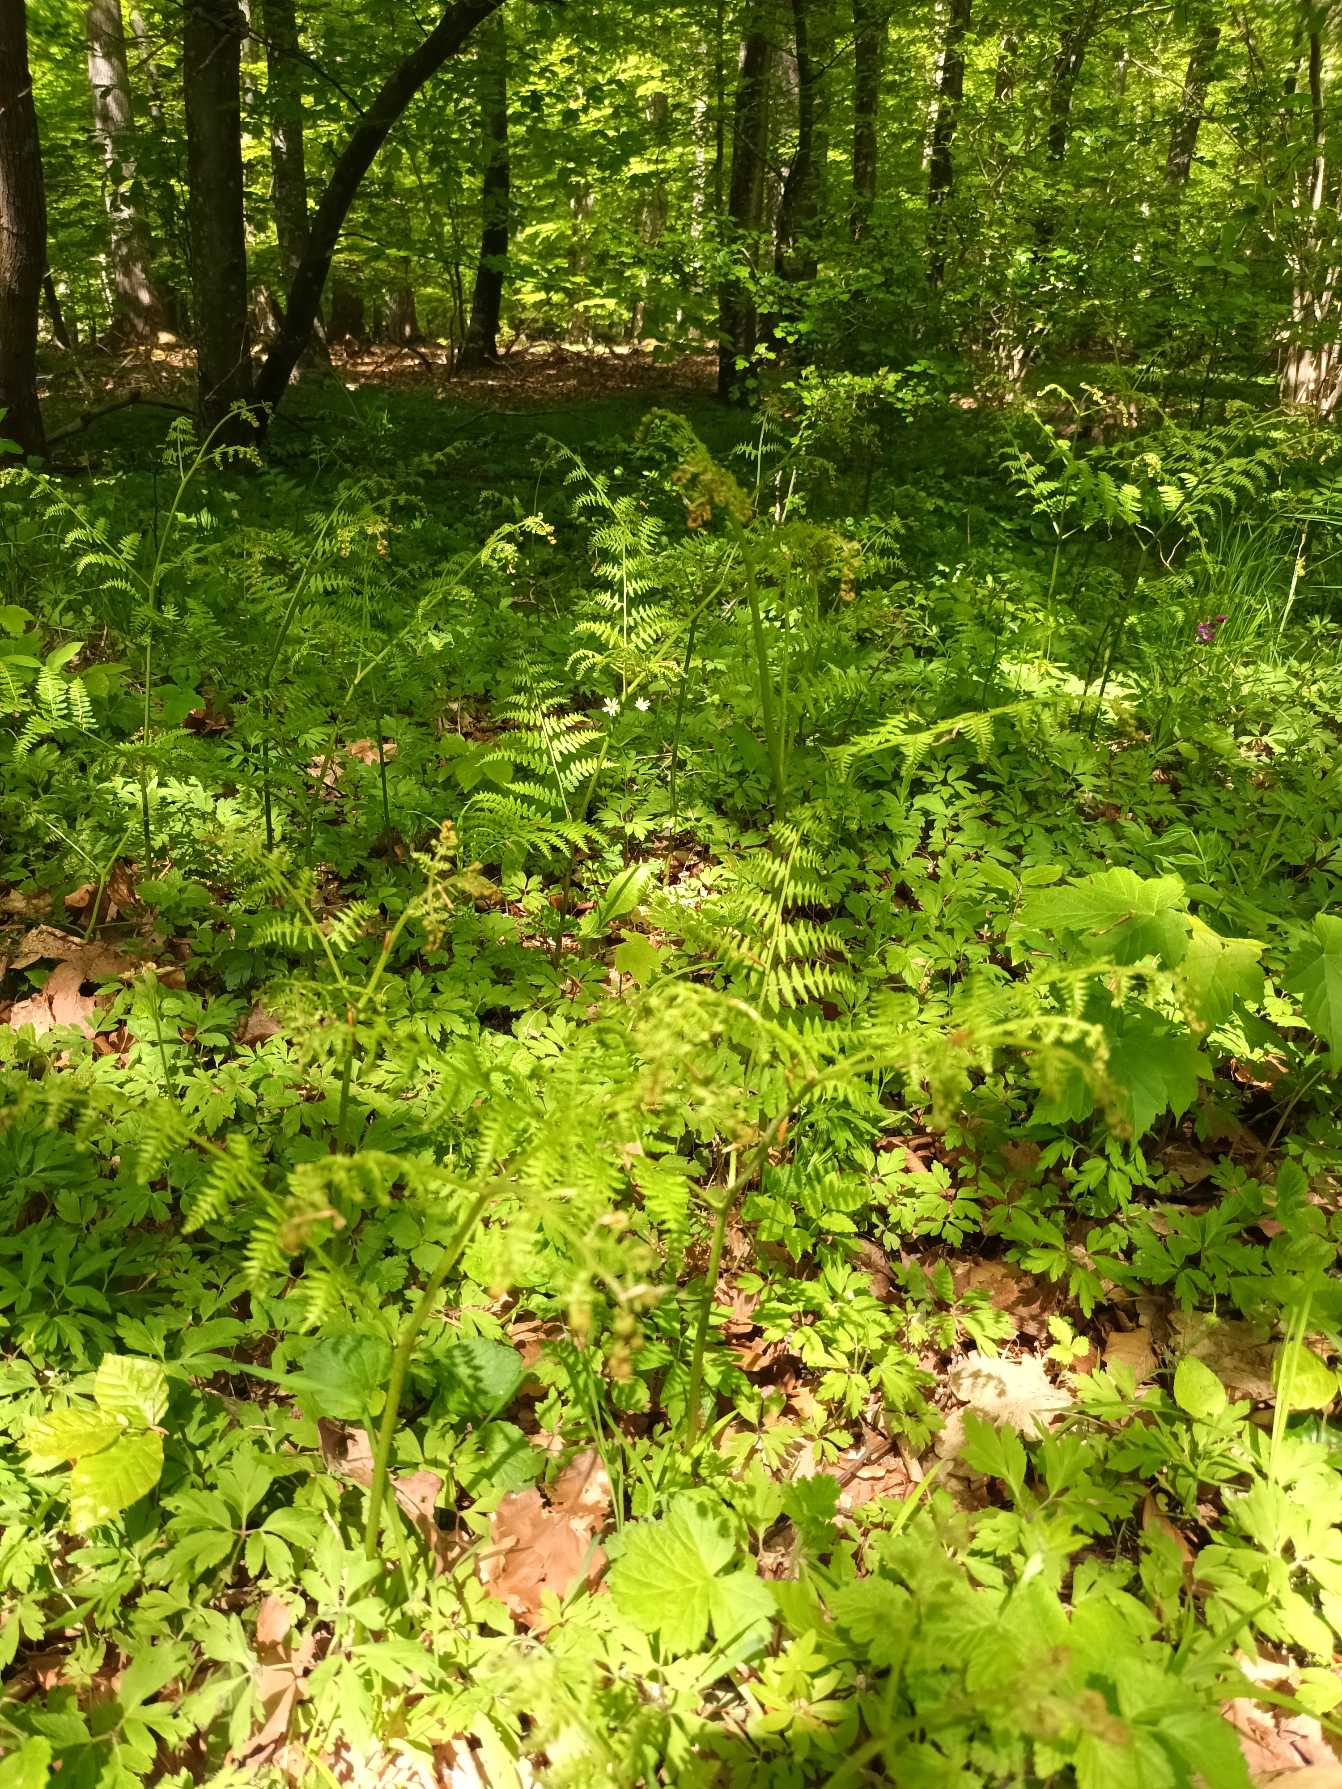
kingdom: Plantae
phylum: Tracheophyta
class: Polypodiopsida
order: Polypodiales
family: Dennstaedtiaceae
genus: Pteridium
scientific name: Pteridium aquilinum
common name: Ørnebregne
